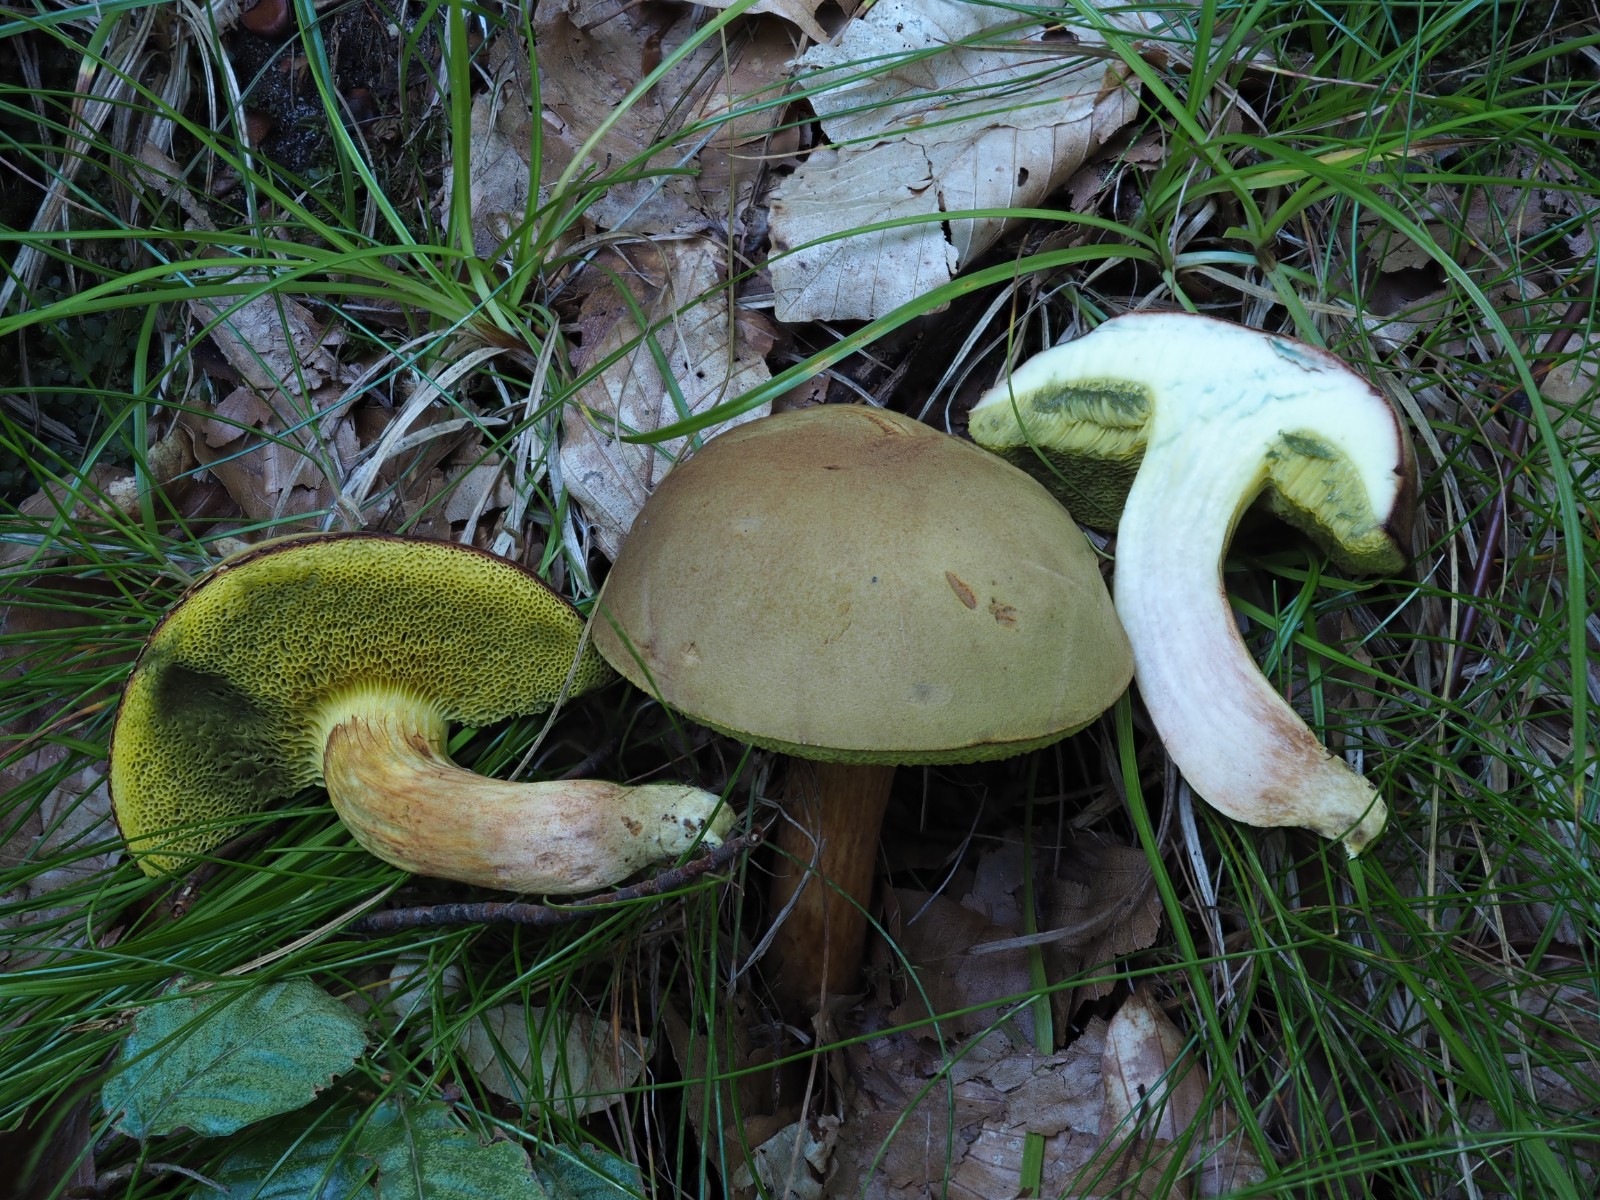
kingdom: Fungi
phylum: Basidiomycota
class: Agaricomycetes
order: Boletales
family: Boletaceae
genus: Hortiboletus
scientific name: Hortiboletus
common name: dværgrørhat
